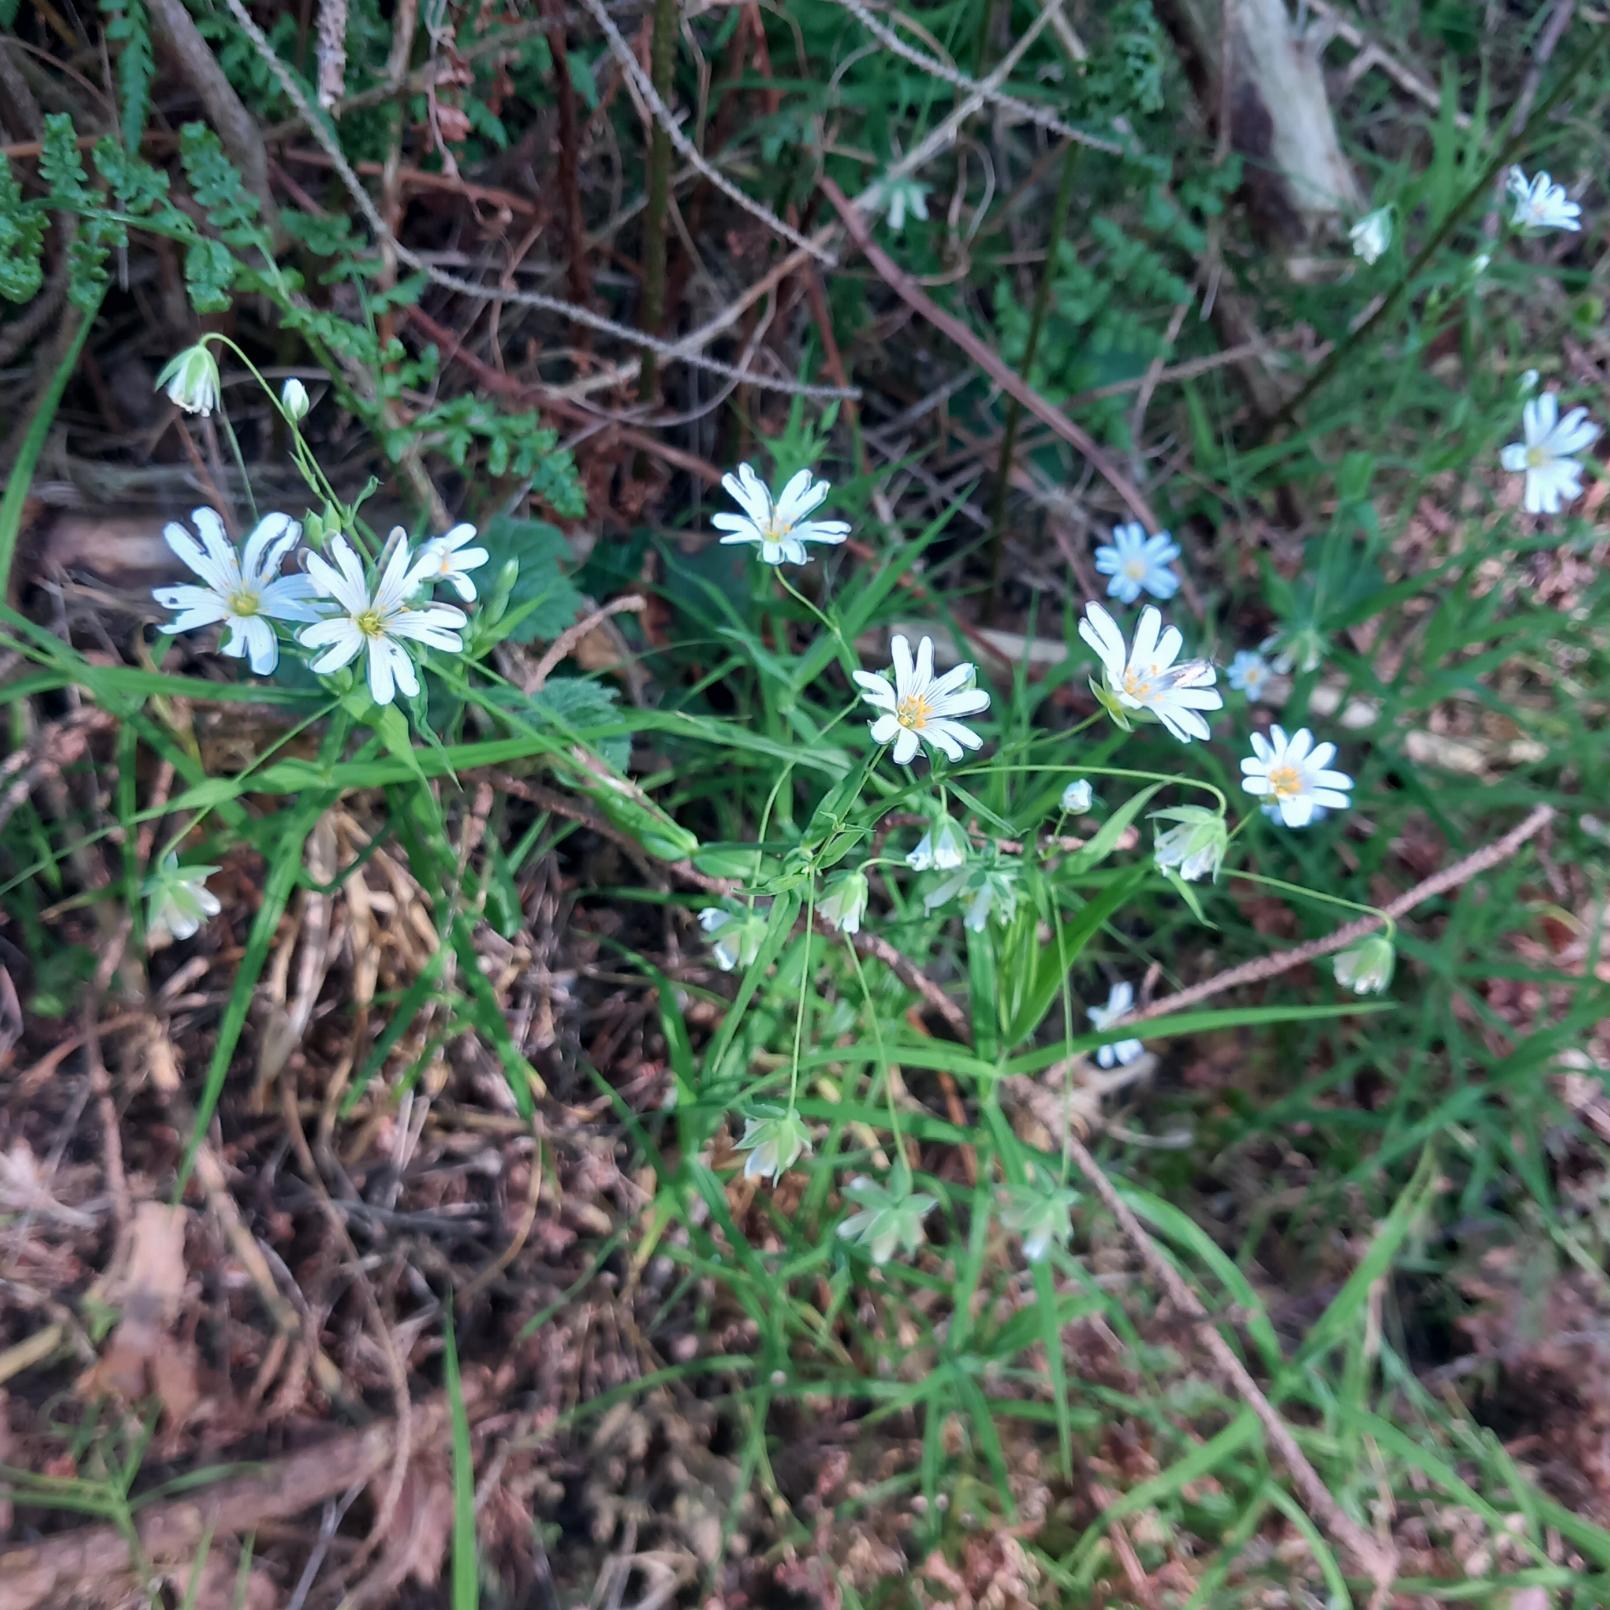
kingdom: Plantae
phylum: Tracheophyta
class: Magnoliopsida
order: Caryophyllales
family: Caryophyllaceae
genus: Rabelera
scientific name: Rabelera holostea
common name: Stor fladstjerne
